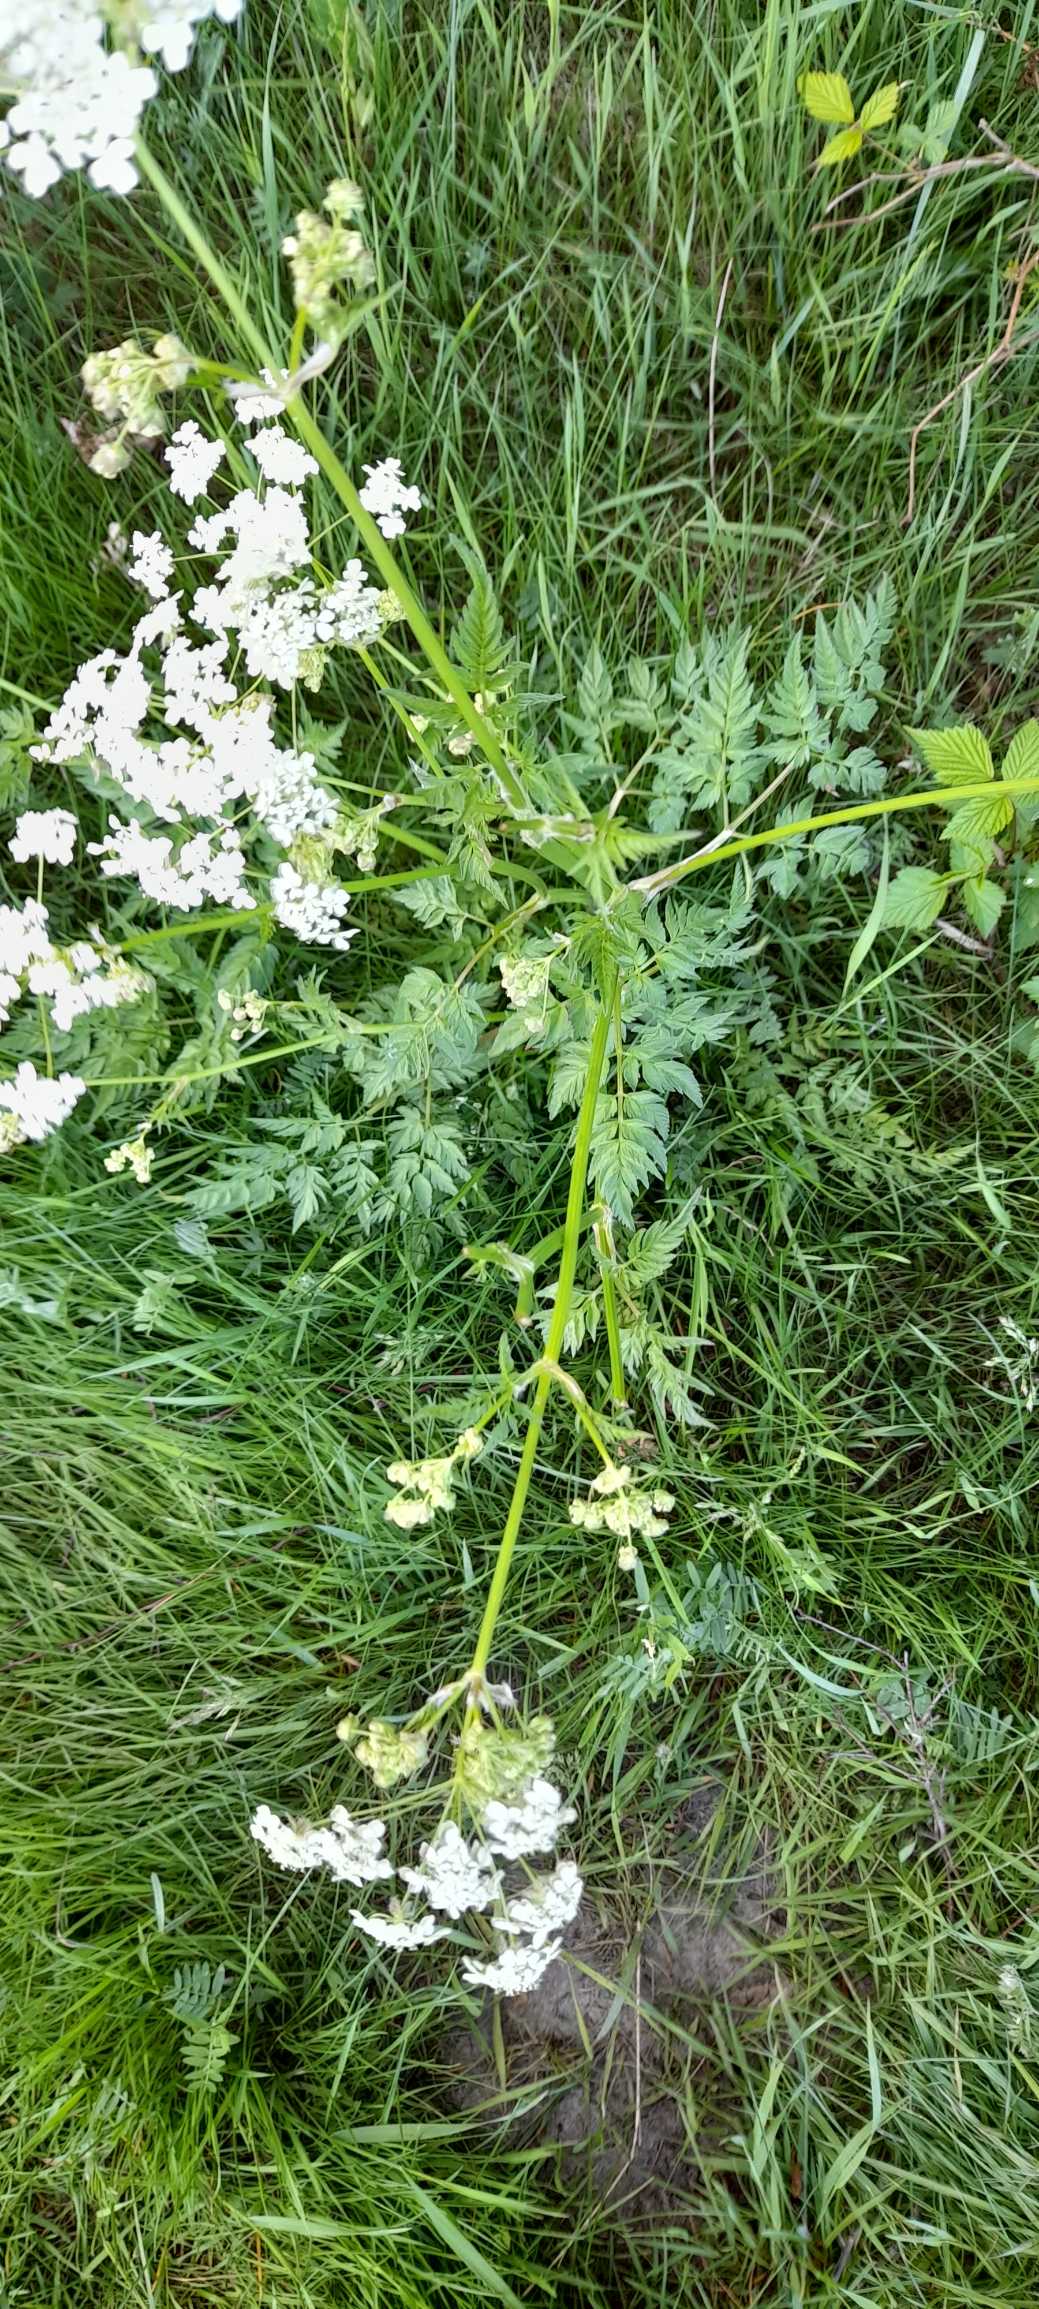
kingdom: Plantae
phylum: Tracheophyta
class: Magnoliopsida
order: Apiales
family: Apiaceae
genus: Anthriscus
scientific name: Anthriscus sylvestris
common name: Vild kørvel
